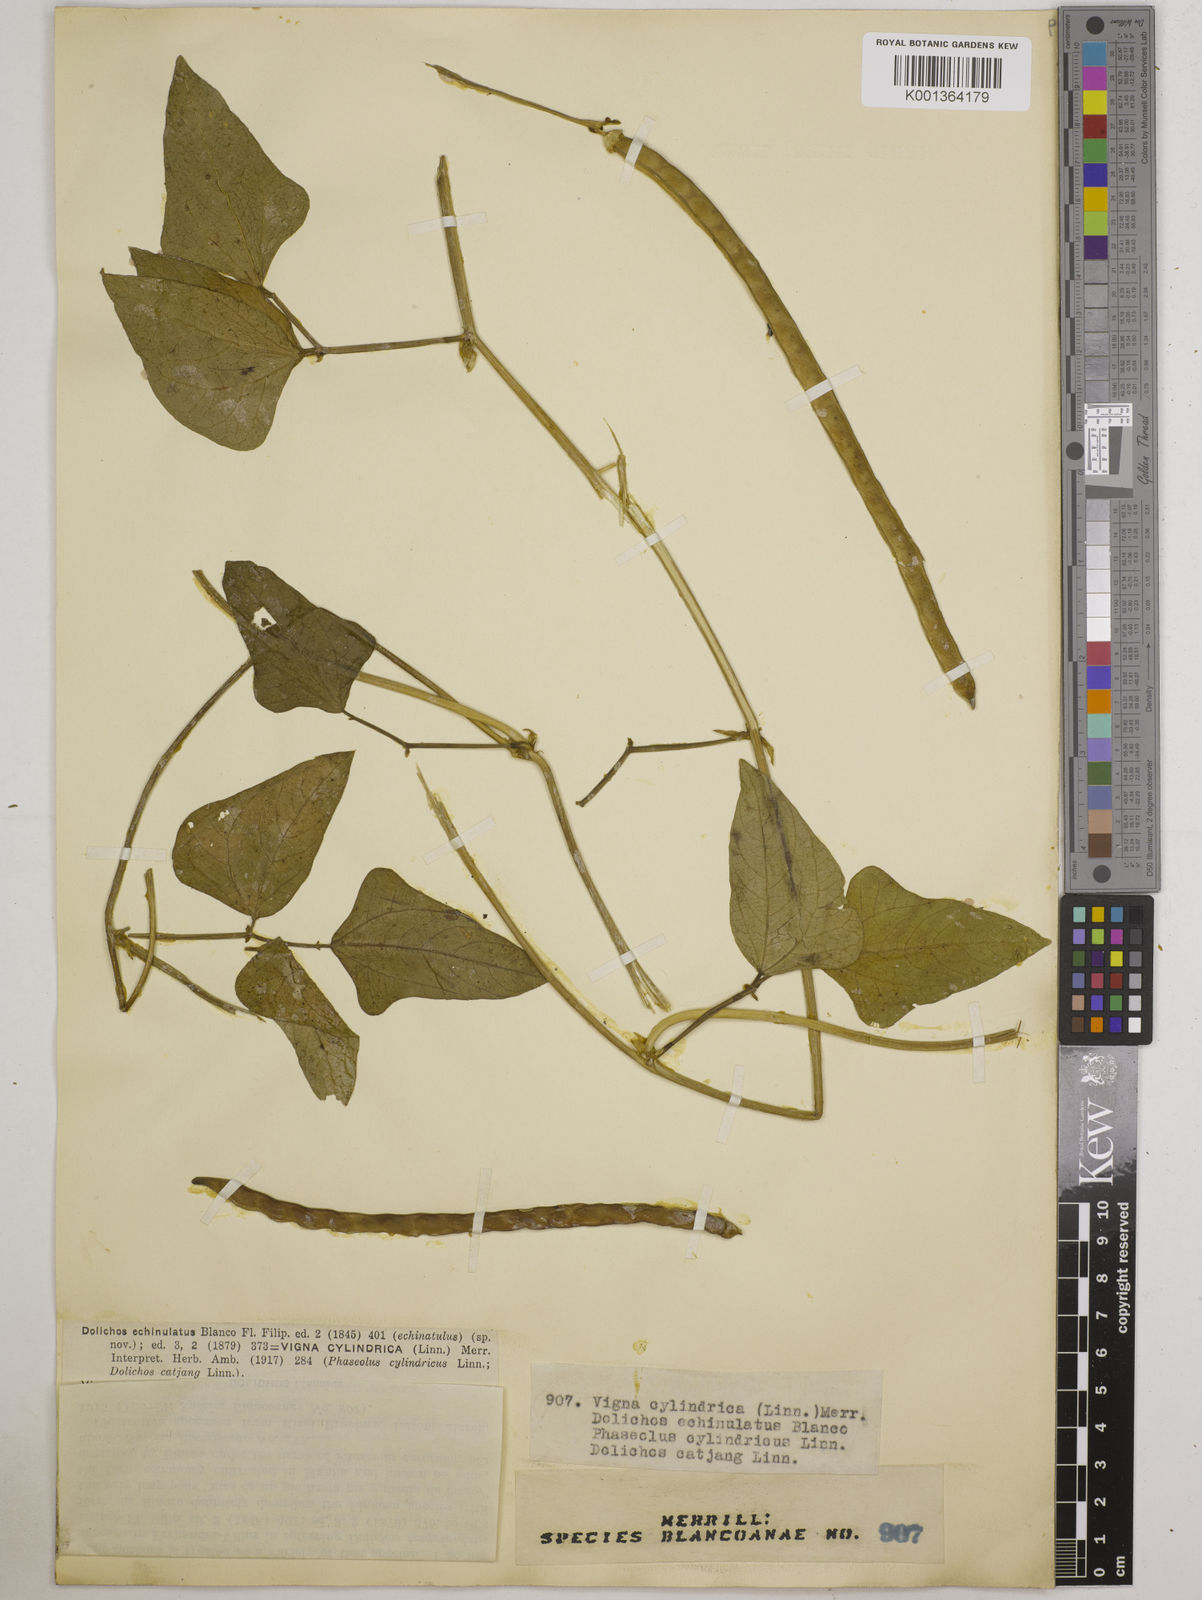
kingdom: Plantae
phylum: Tracheophyta
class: Magnoliopsida
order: Fabales
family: Fabaceae
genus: Vigna
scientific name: Vigna
